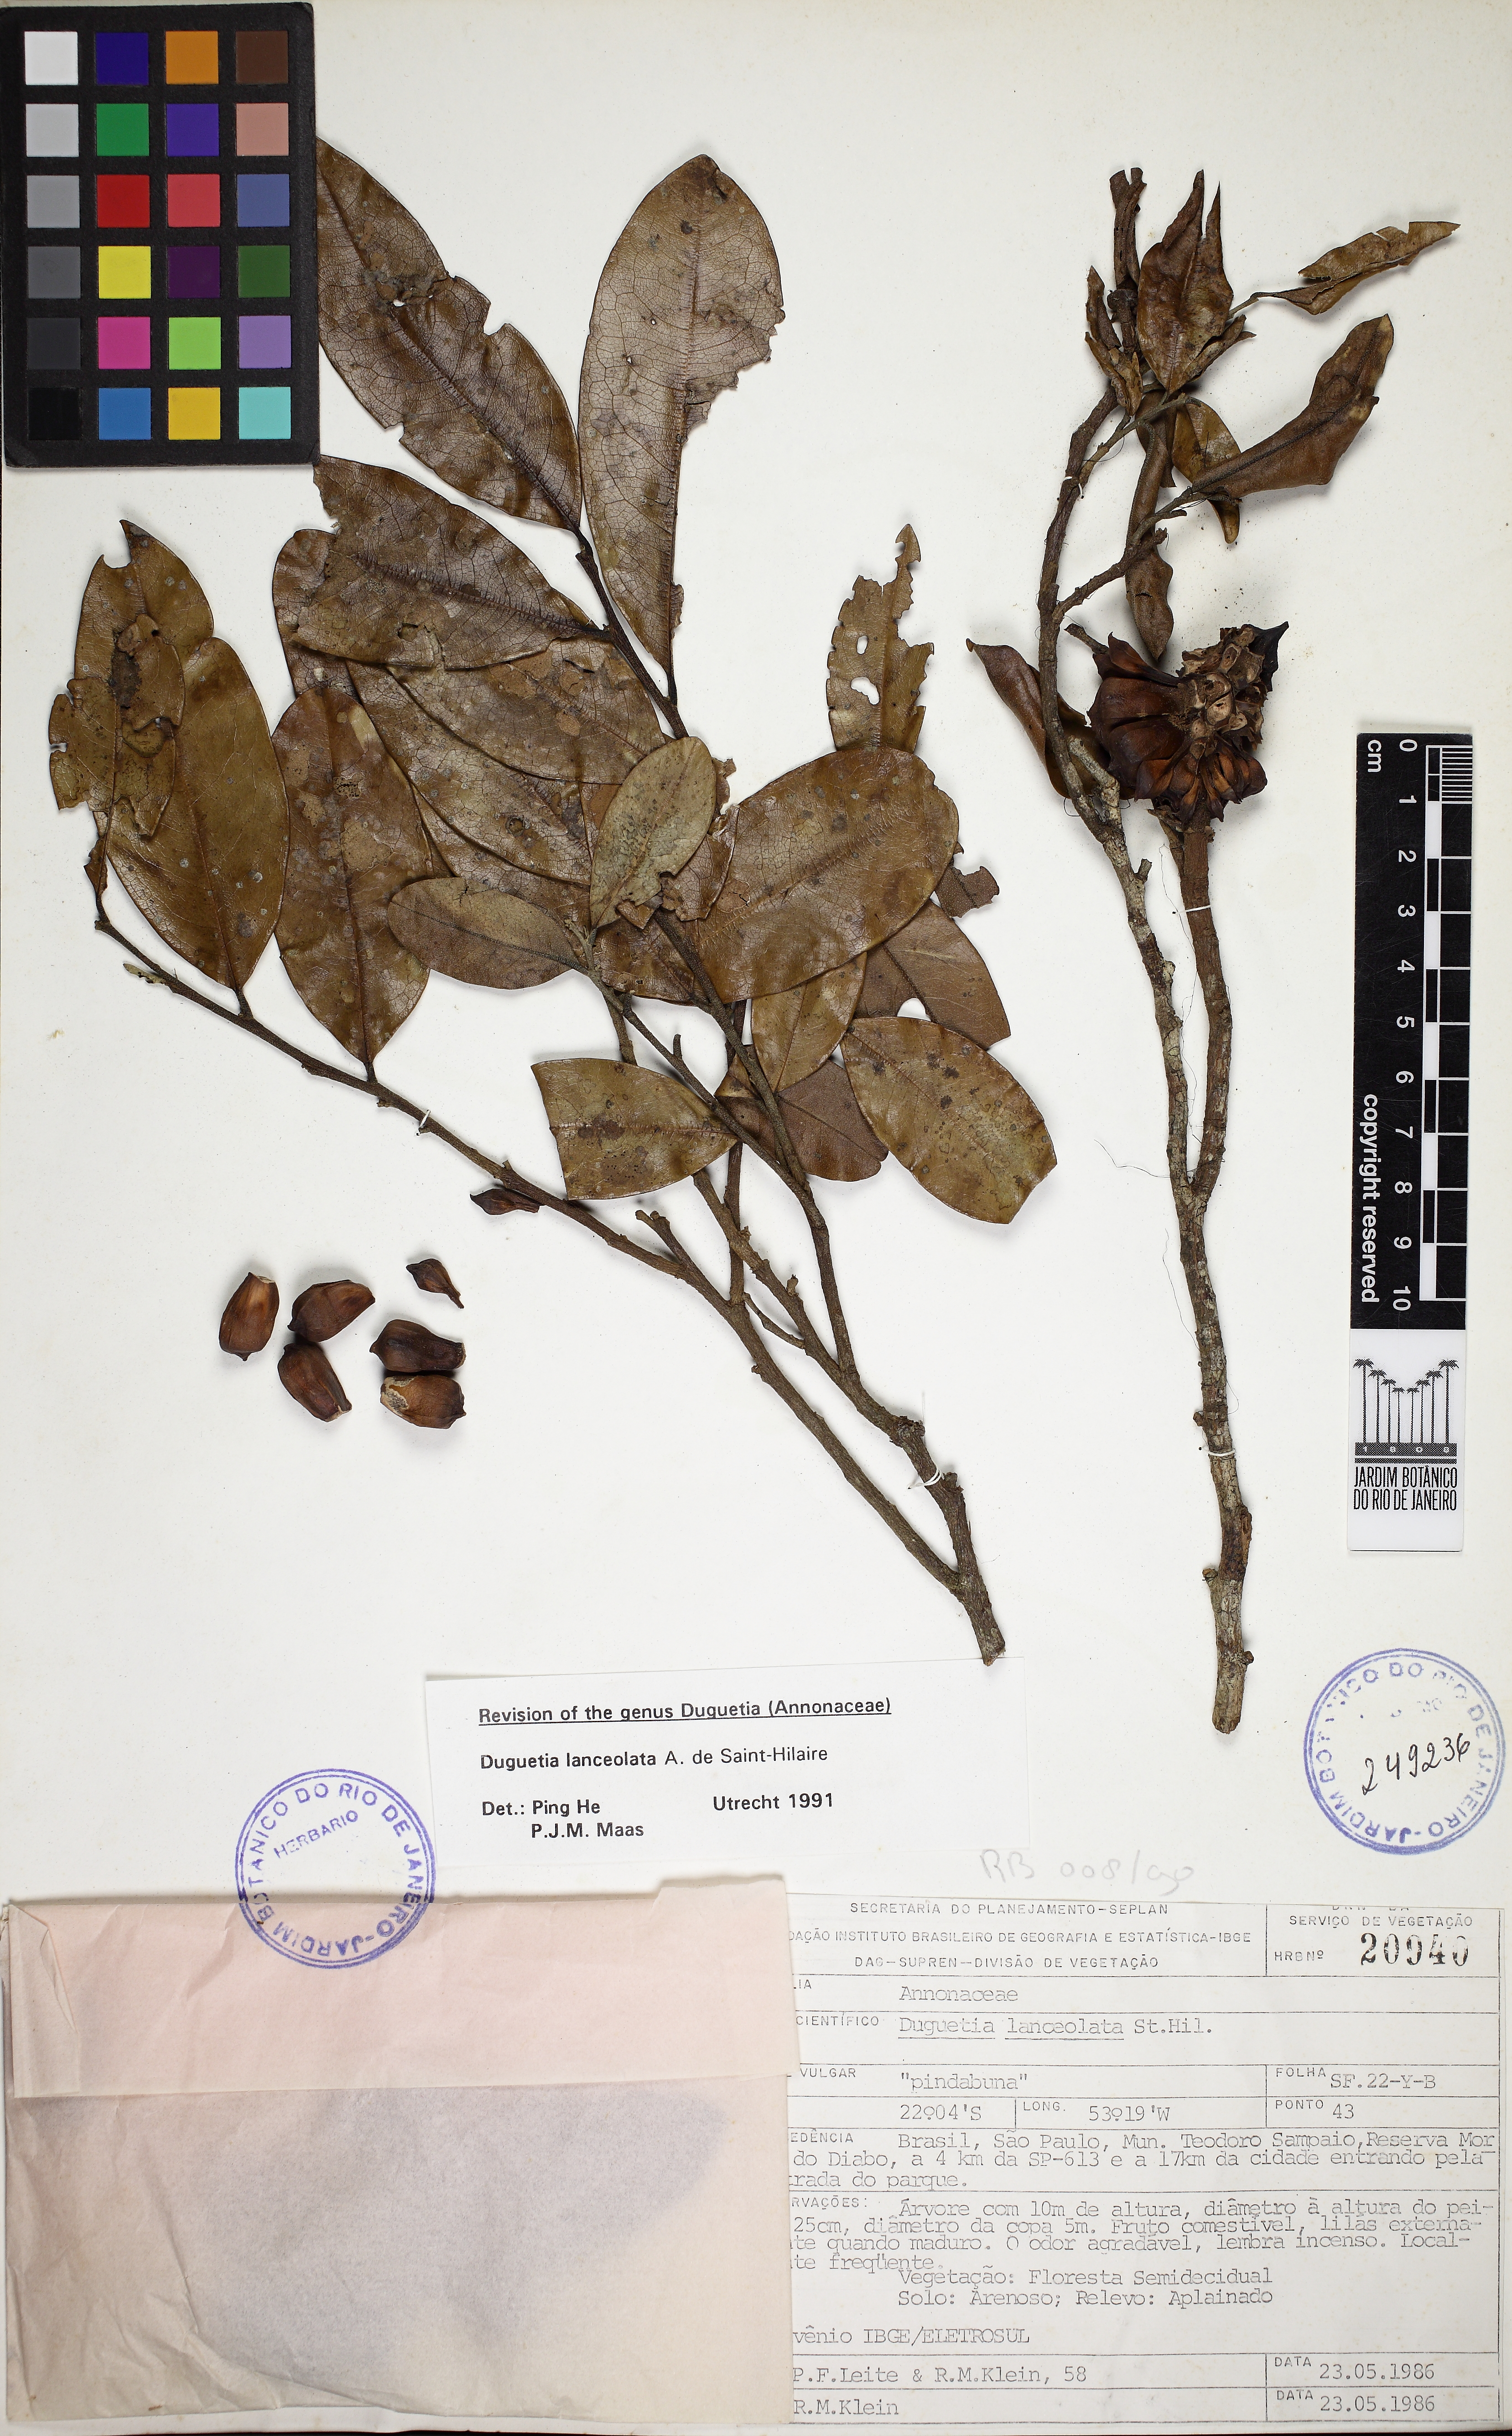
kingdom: Plantae
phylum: Tracheophyta
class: Magnoliopsida
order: Magnoliales
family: Annonaceae
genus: Duguetia
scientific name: Duguetia lanceolata
